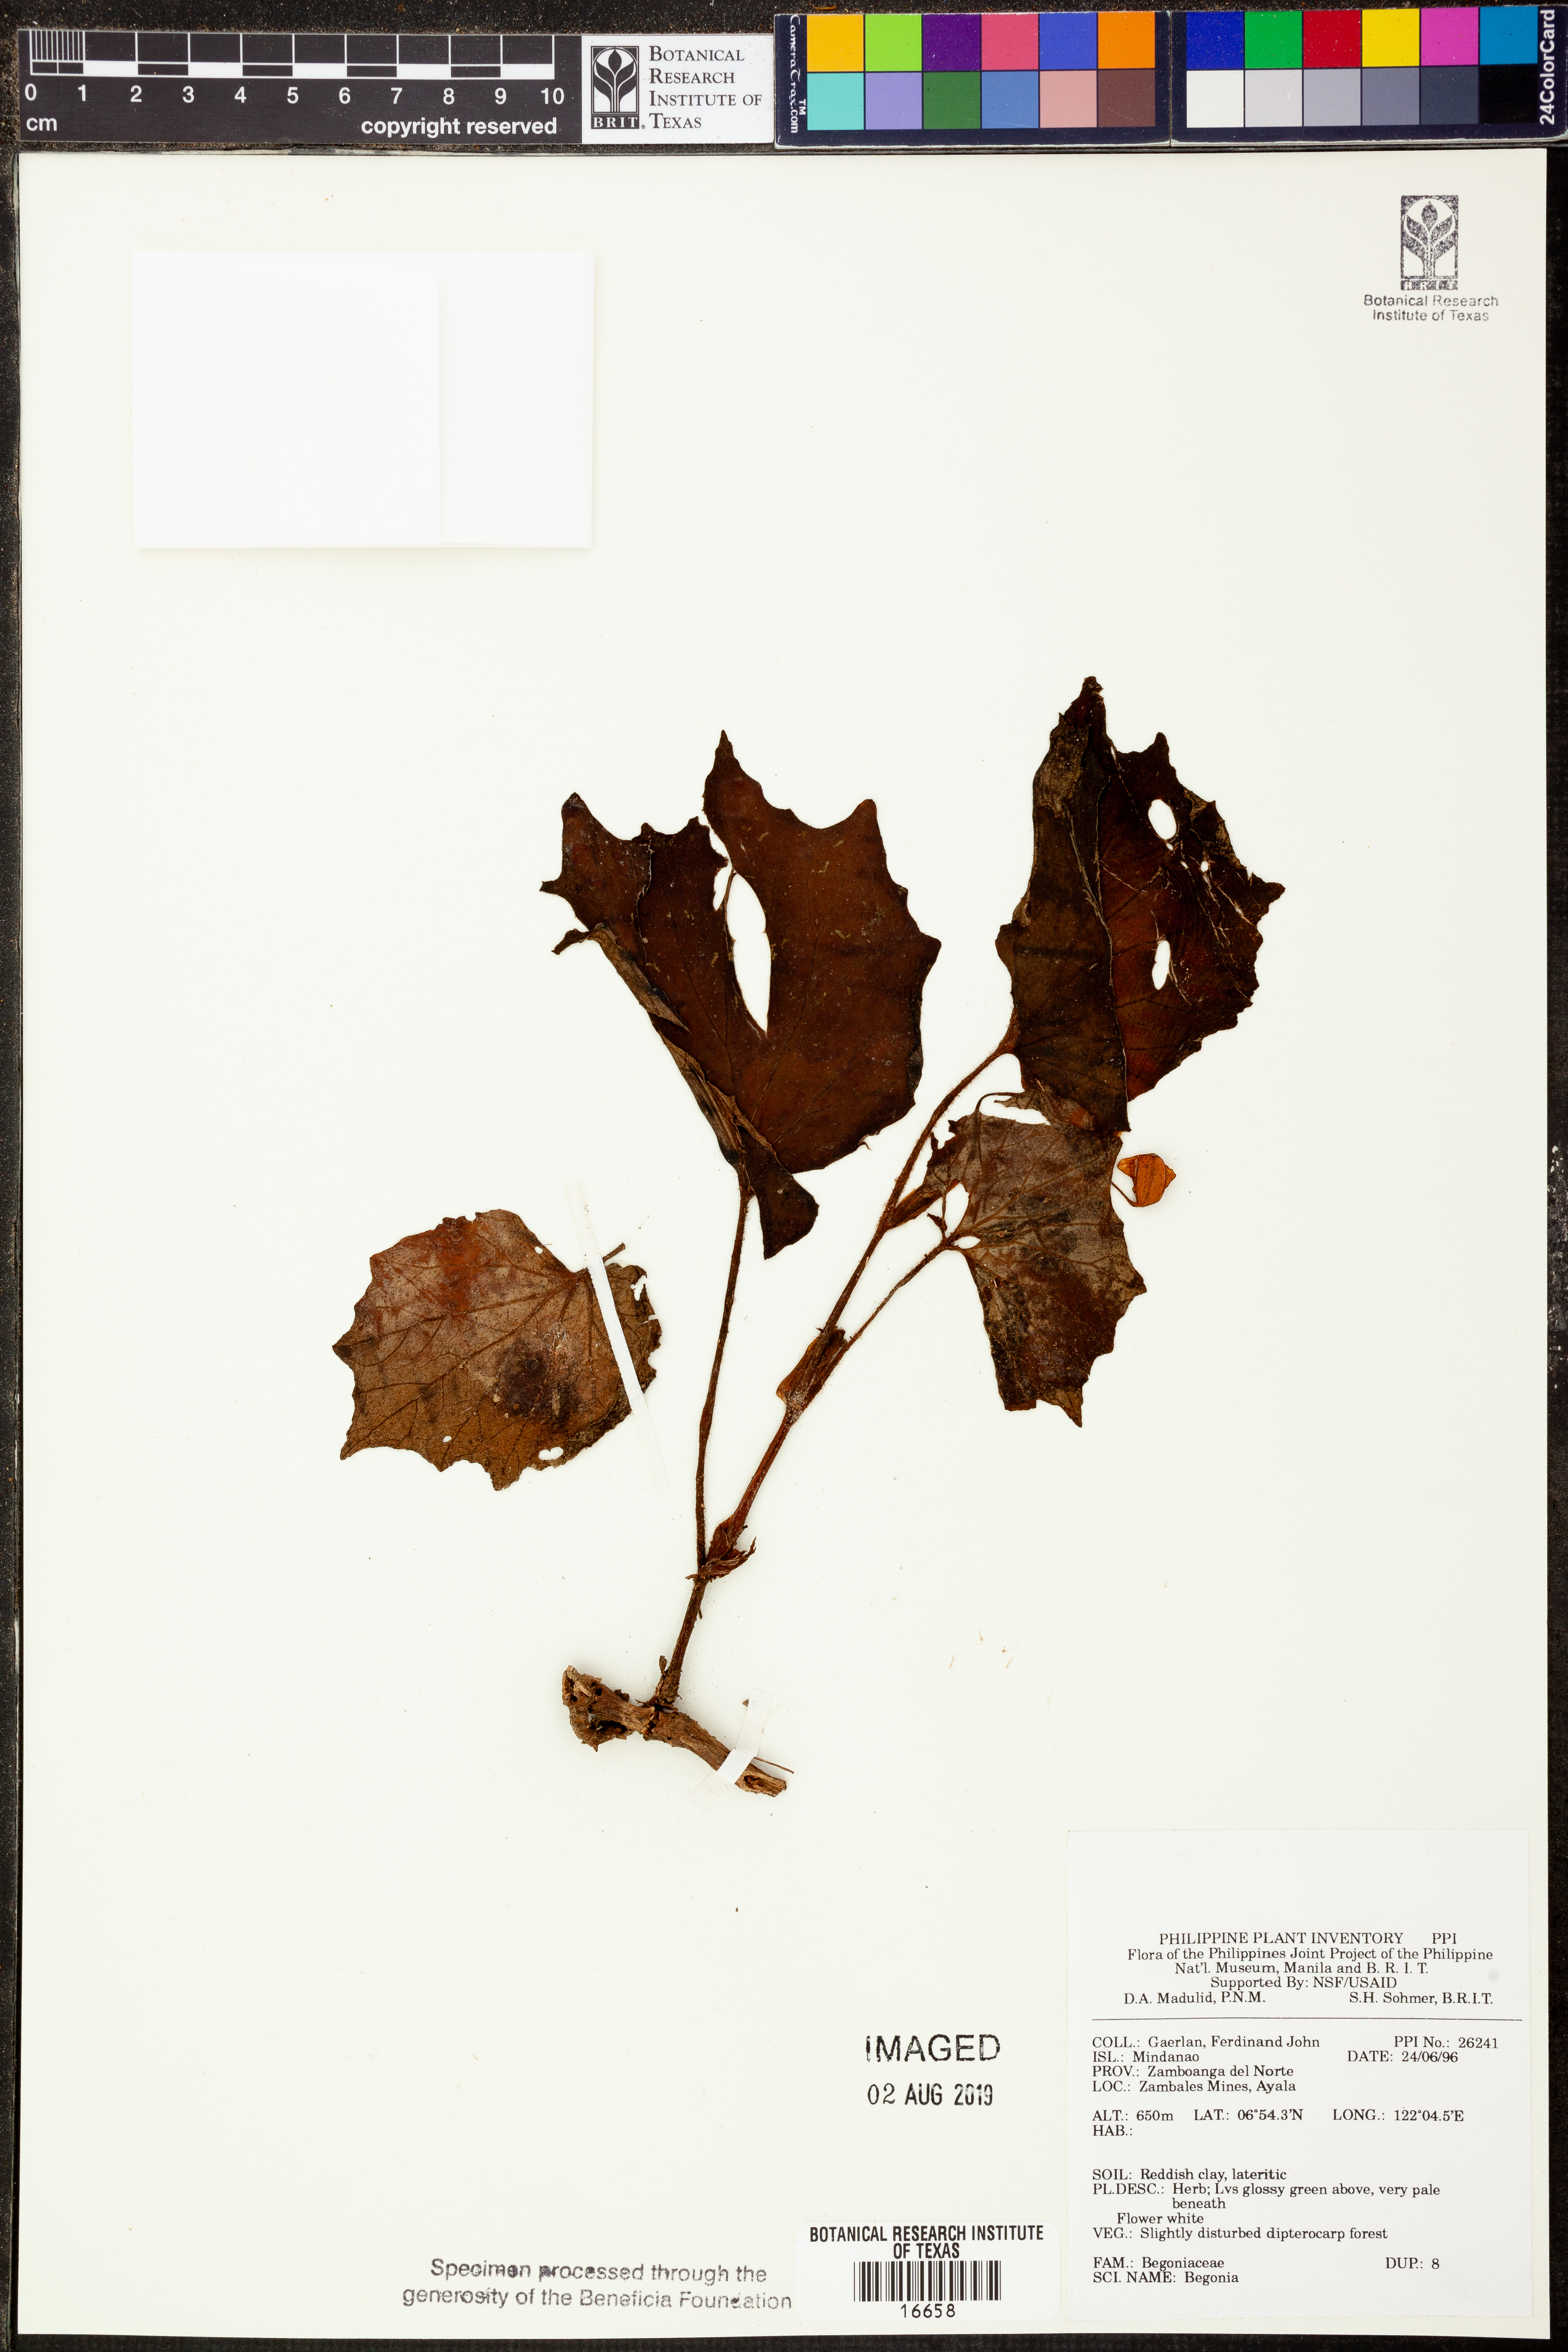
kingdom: Plantae
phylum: Tracheophyta
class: Magnoliopsida
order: Cucurbitales
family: Begoniaceae
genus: Begonia
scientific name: Begonia
